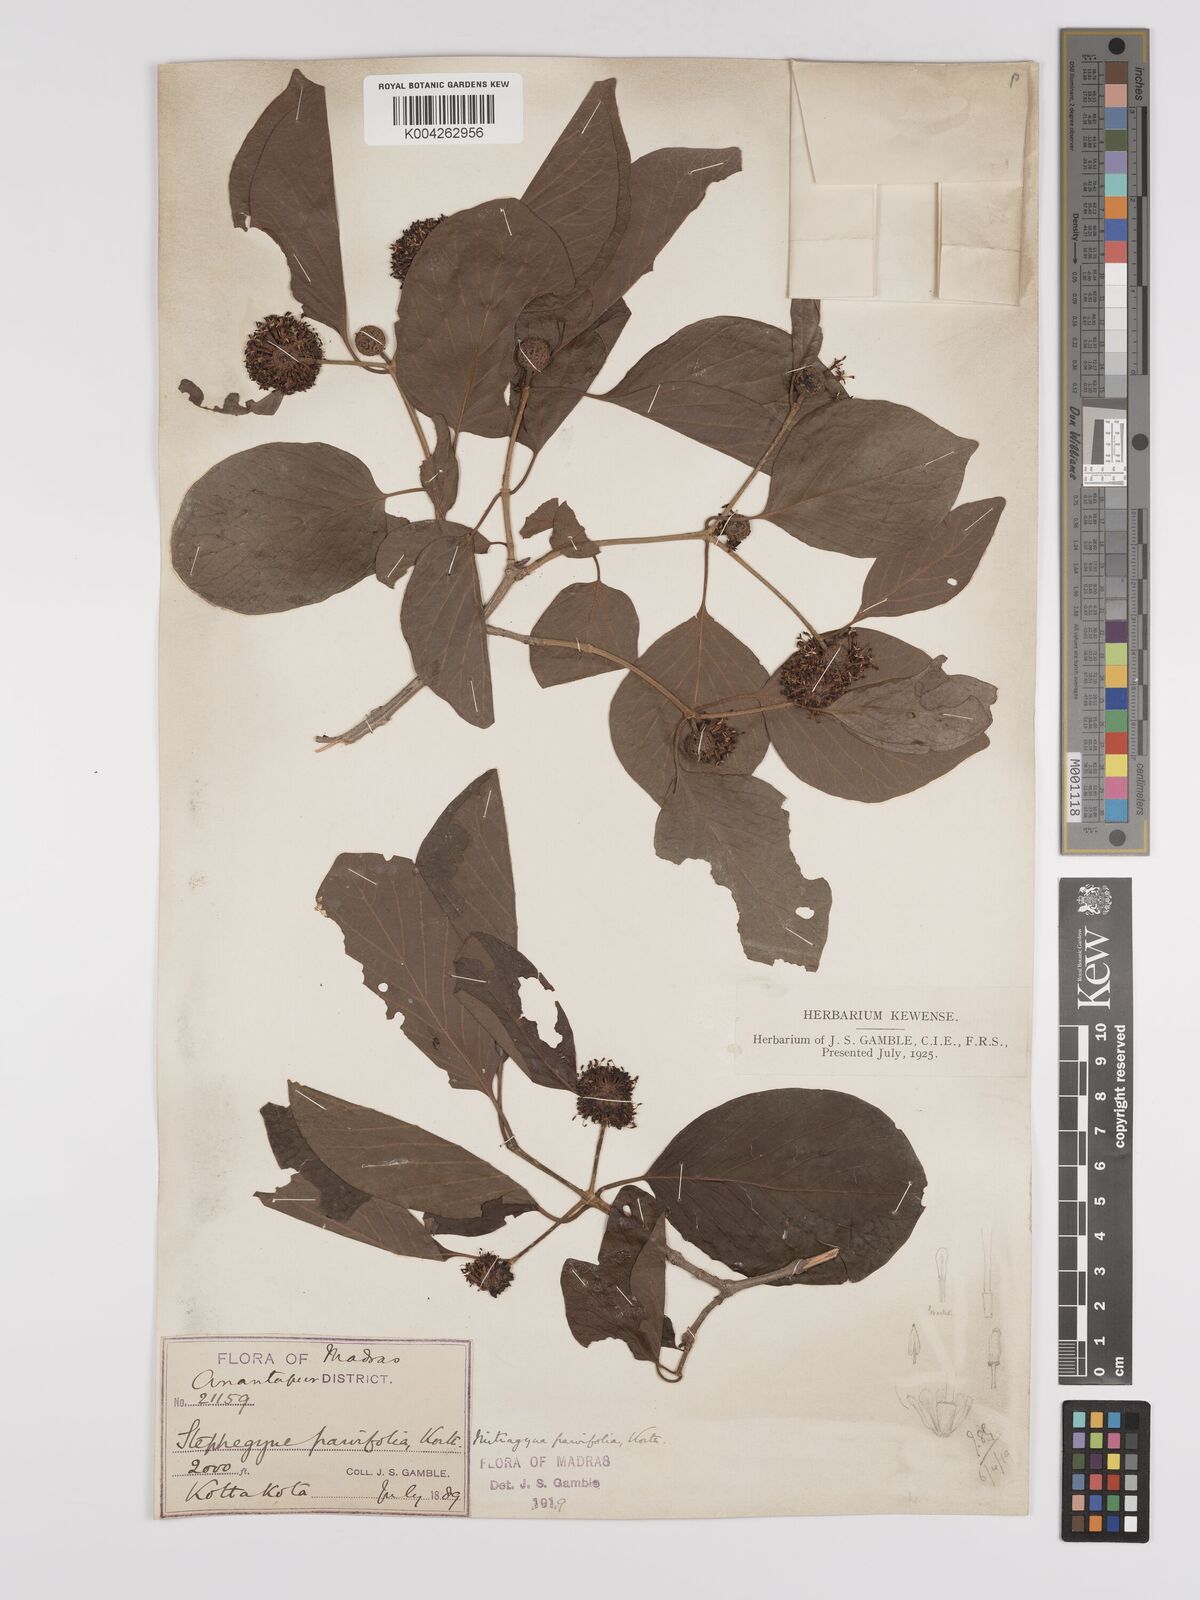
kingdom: Plantae
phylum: Tracheophyta
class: Magnoliopsida
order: Gentianales
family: Rubiaceae
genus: Mitragyna
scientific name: Mitragyna parvifolia
